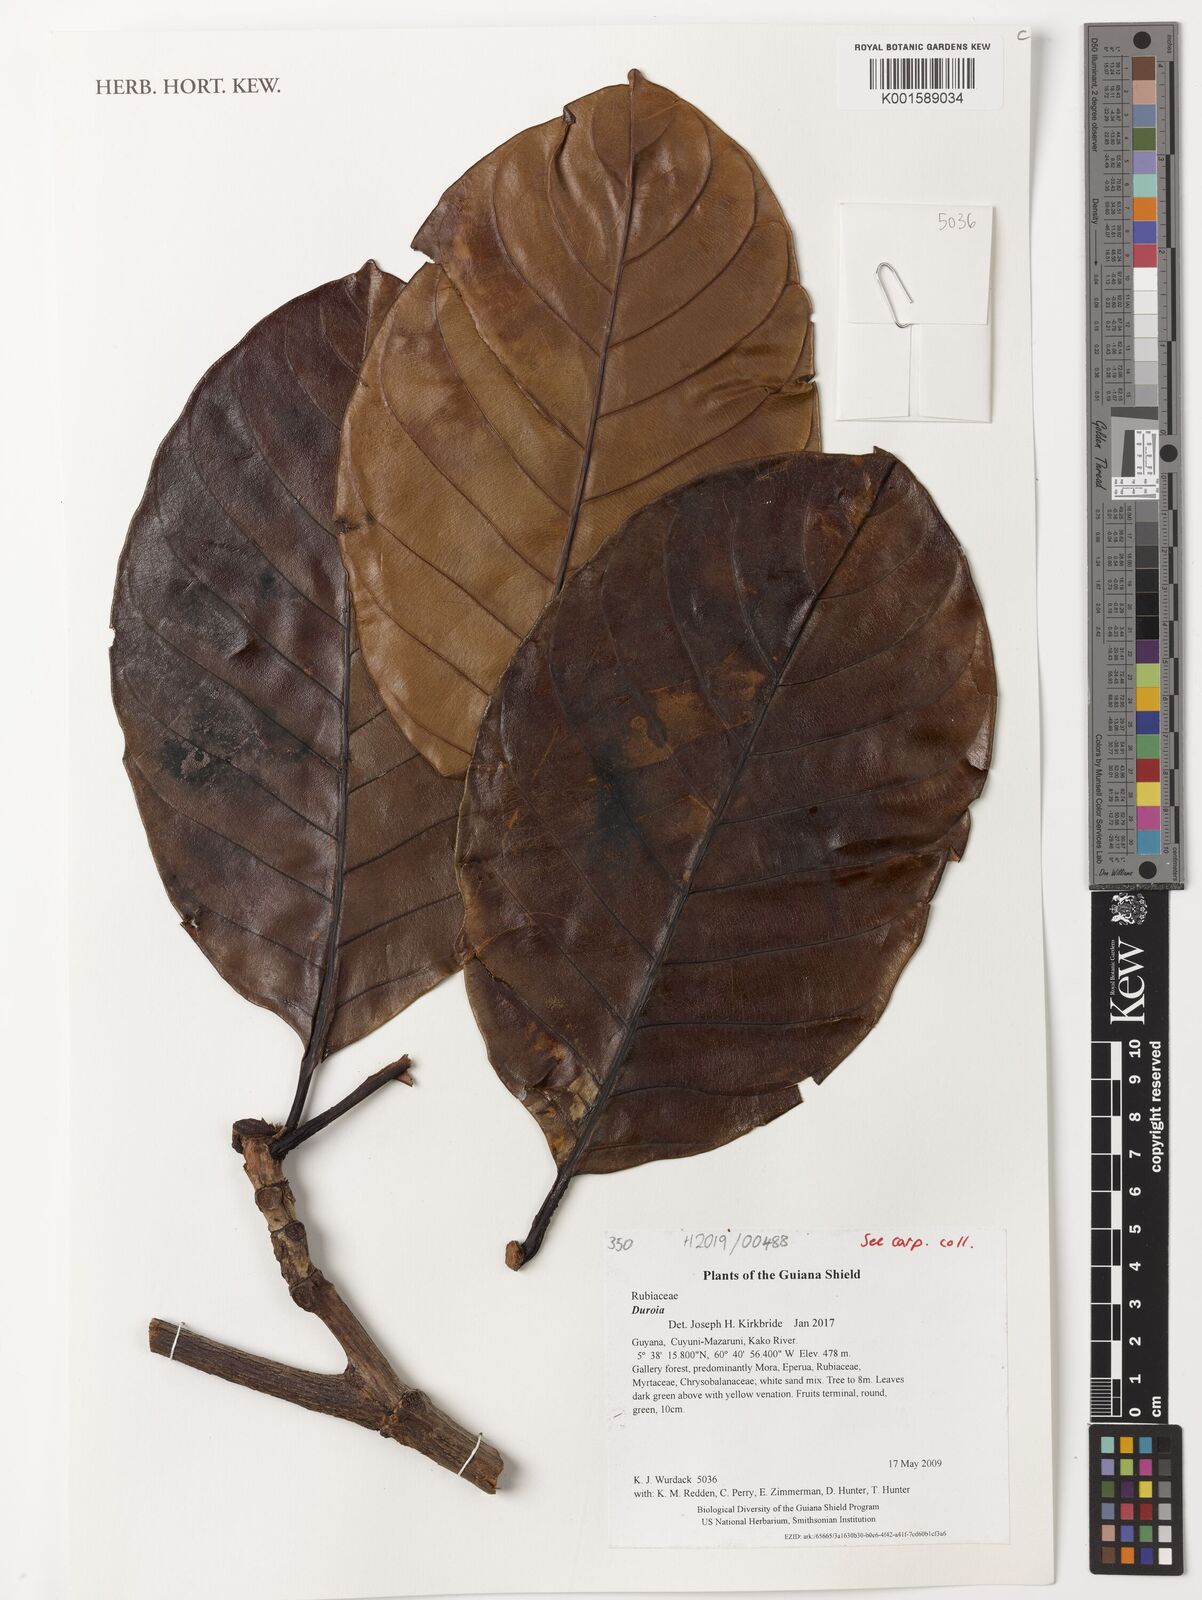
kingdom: Plantae
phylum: Tracheophyta
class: Magnoliopsida
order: Gentianales
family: Rubiaceae
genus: Duroia
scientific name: Duroia
